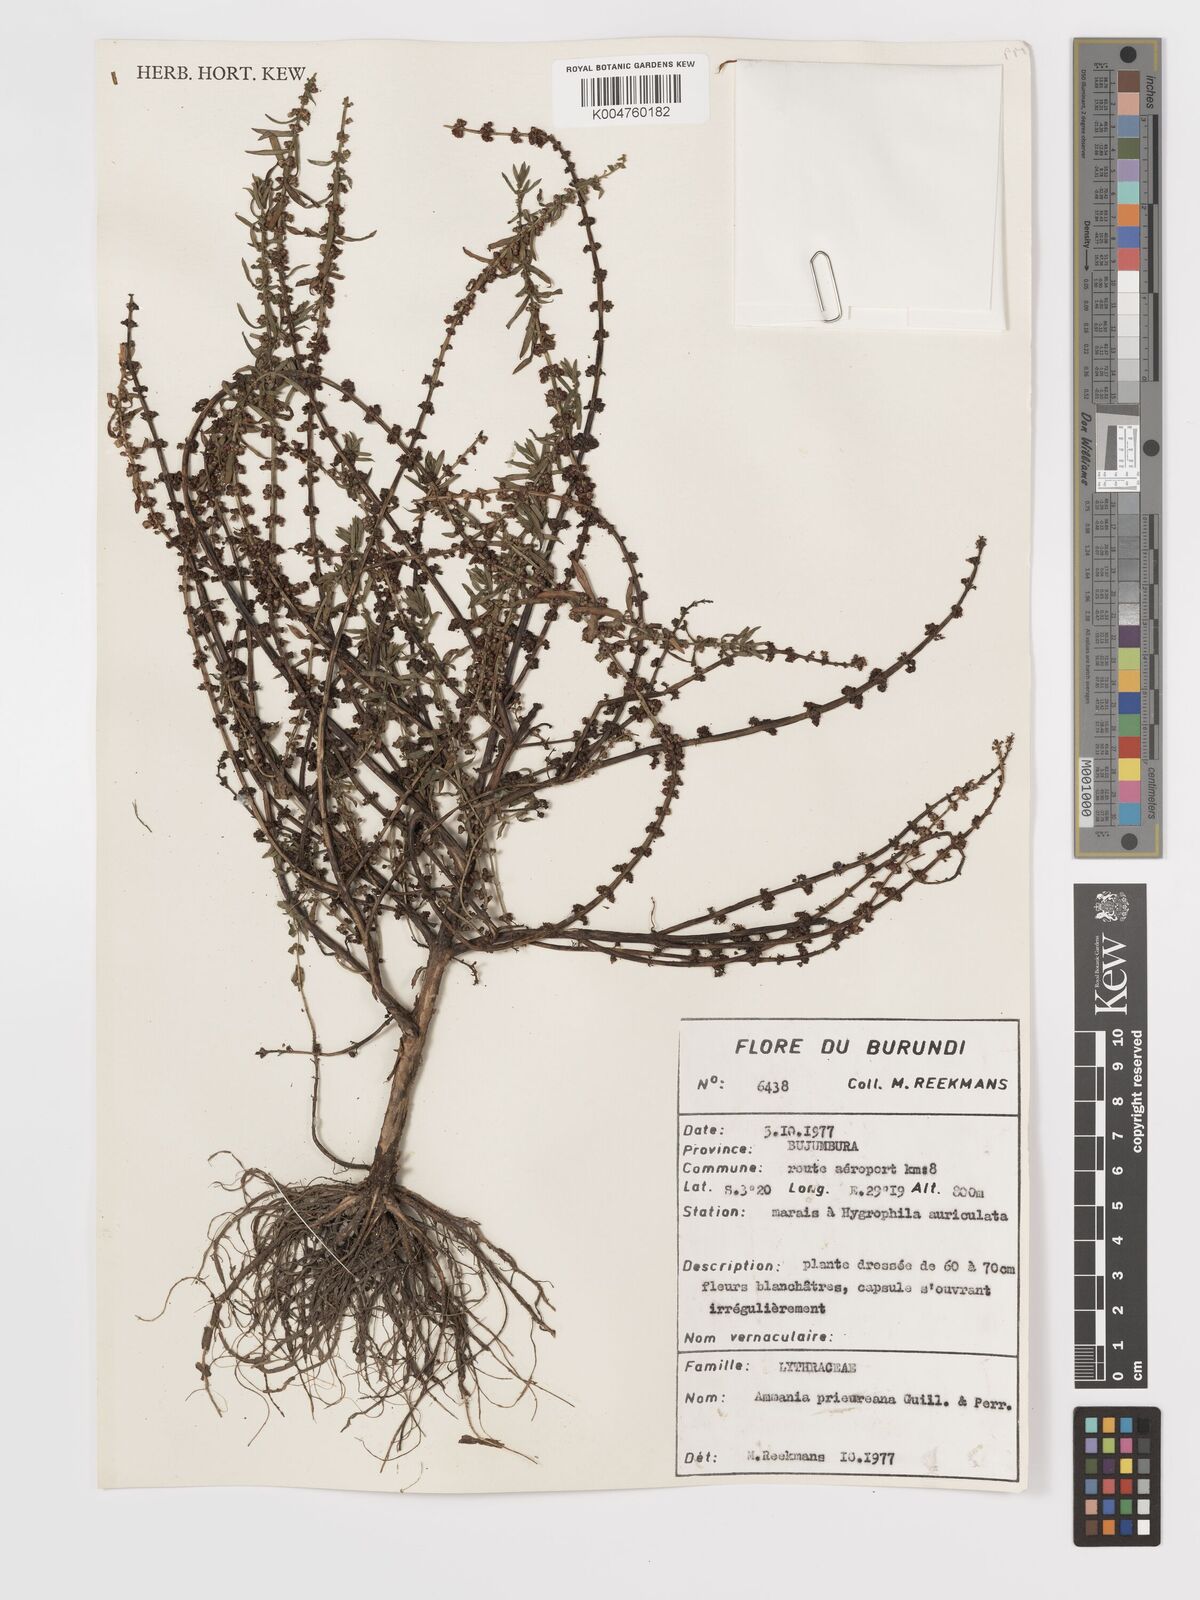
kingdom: Plantae
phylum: Tracheophyta
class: Magnoliopsida
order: Myrtales
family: Lythraceae
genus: Ammannia
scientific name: Ammannia
